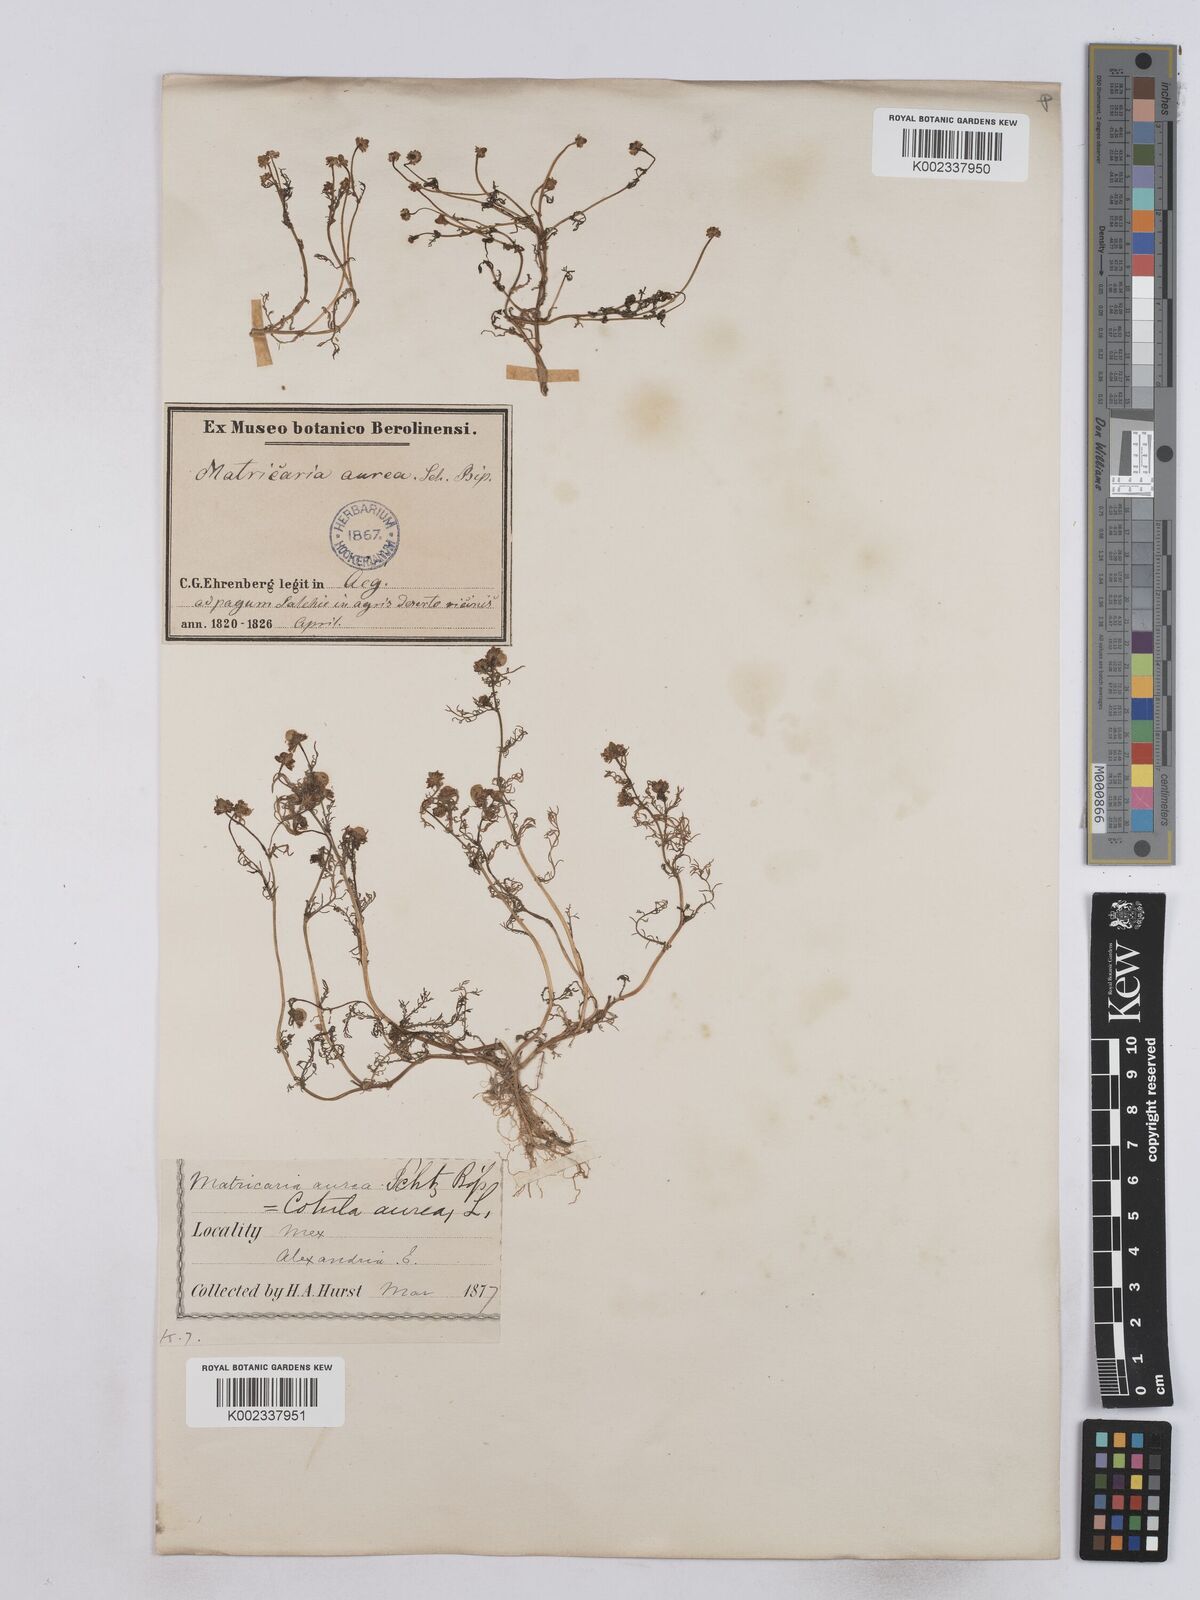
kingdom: Plantae
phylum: Tracheophyta
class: Magnoliopsida
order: Asterales
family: Asteraceae
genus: Matricaria
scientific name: Matricaria
